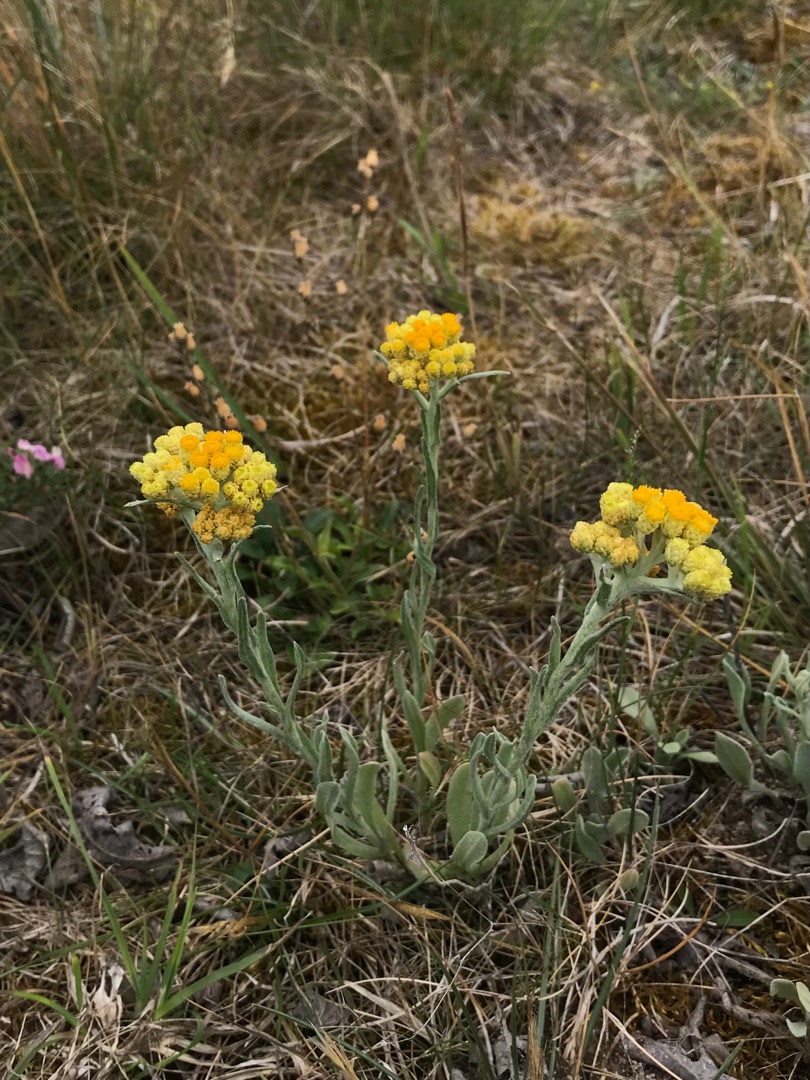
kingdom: Plantae
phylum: Tracheophyta
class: Magnoliopsida
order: Asterales
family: Asteraceae
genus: Helichrysum
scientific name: Helichrysum arenarium
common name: Gul evighedsblomst
